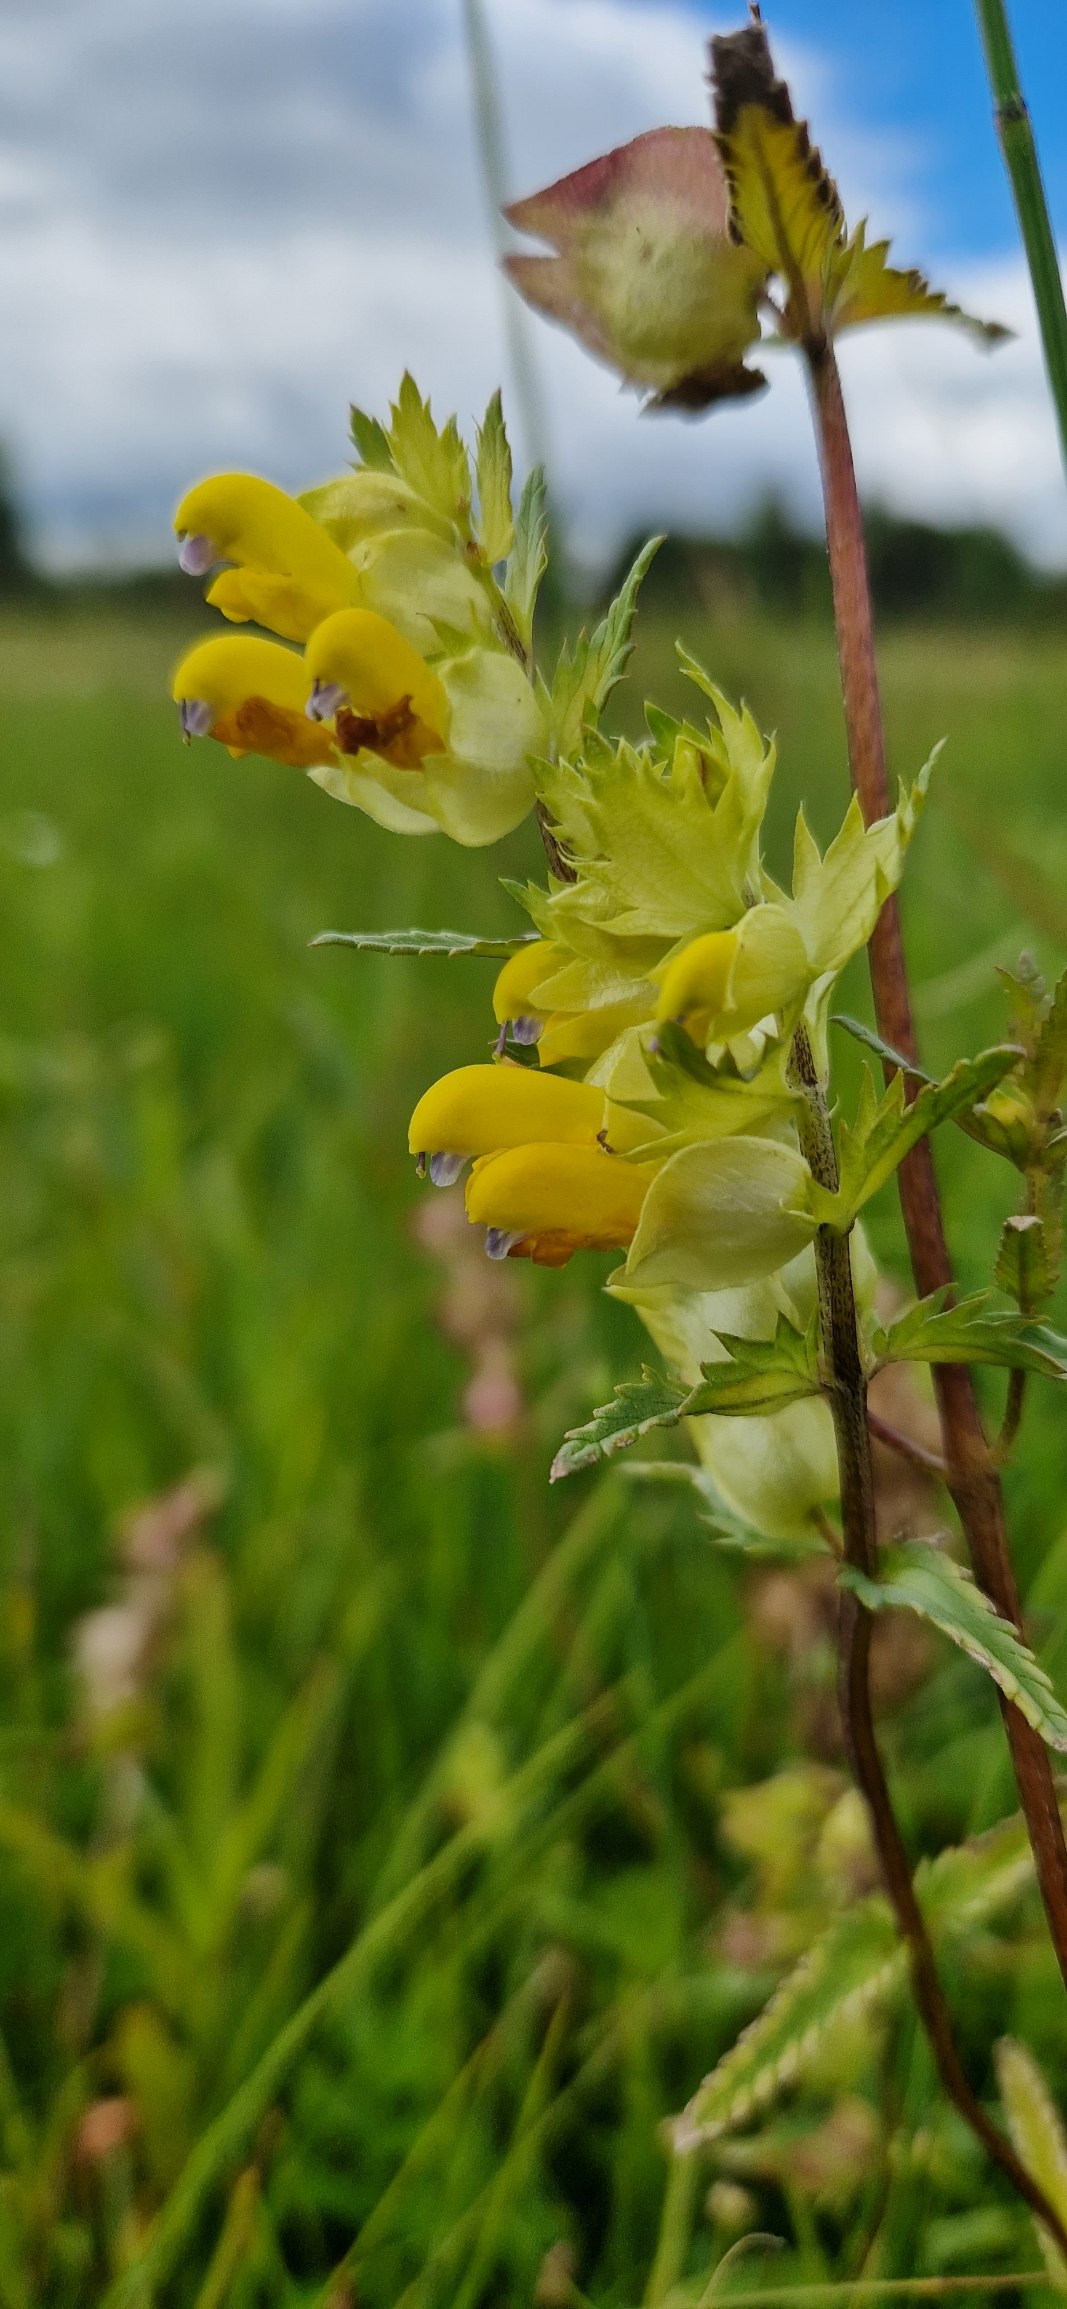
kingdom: Plantae
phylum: Tracheophyta
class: Magnoliopsida
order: Lamiales
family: Orobanchaceae
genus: Rhinanthus
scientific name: Rhinanthus
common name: Stor skjaller
